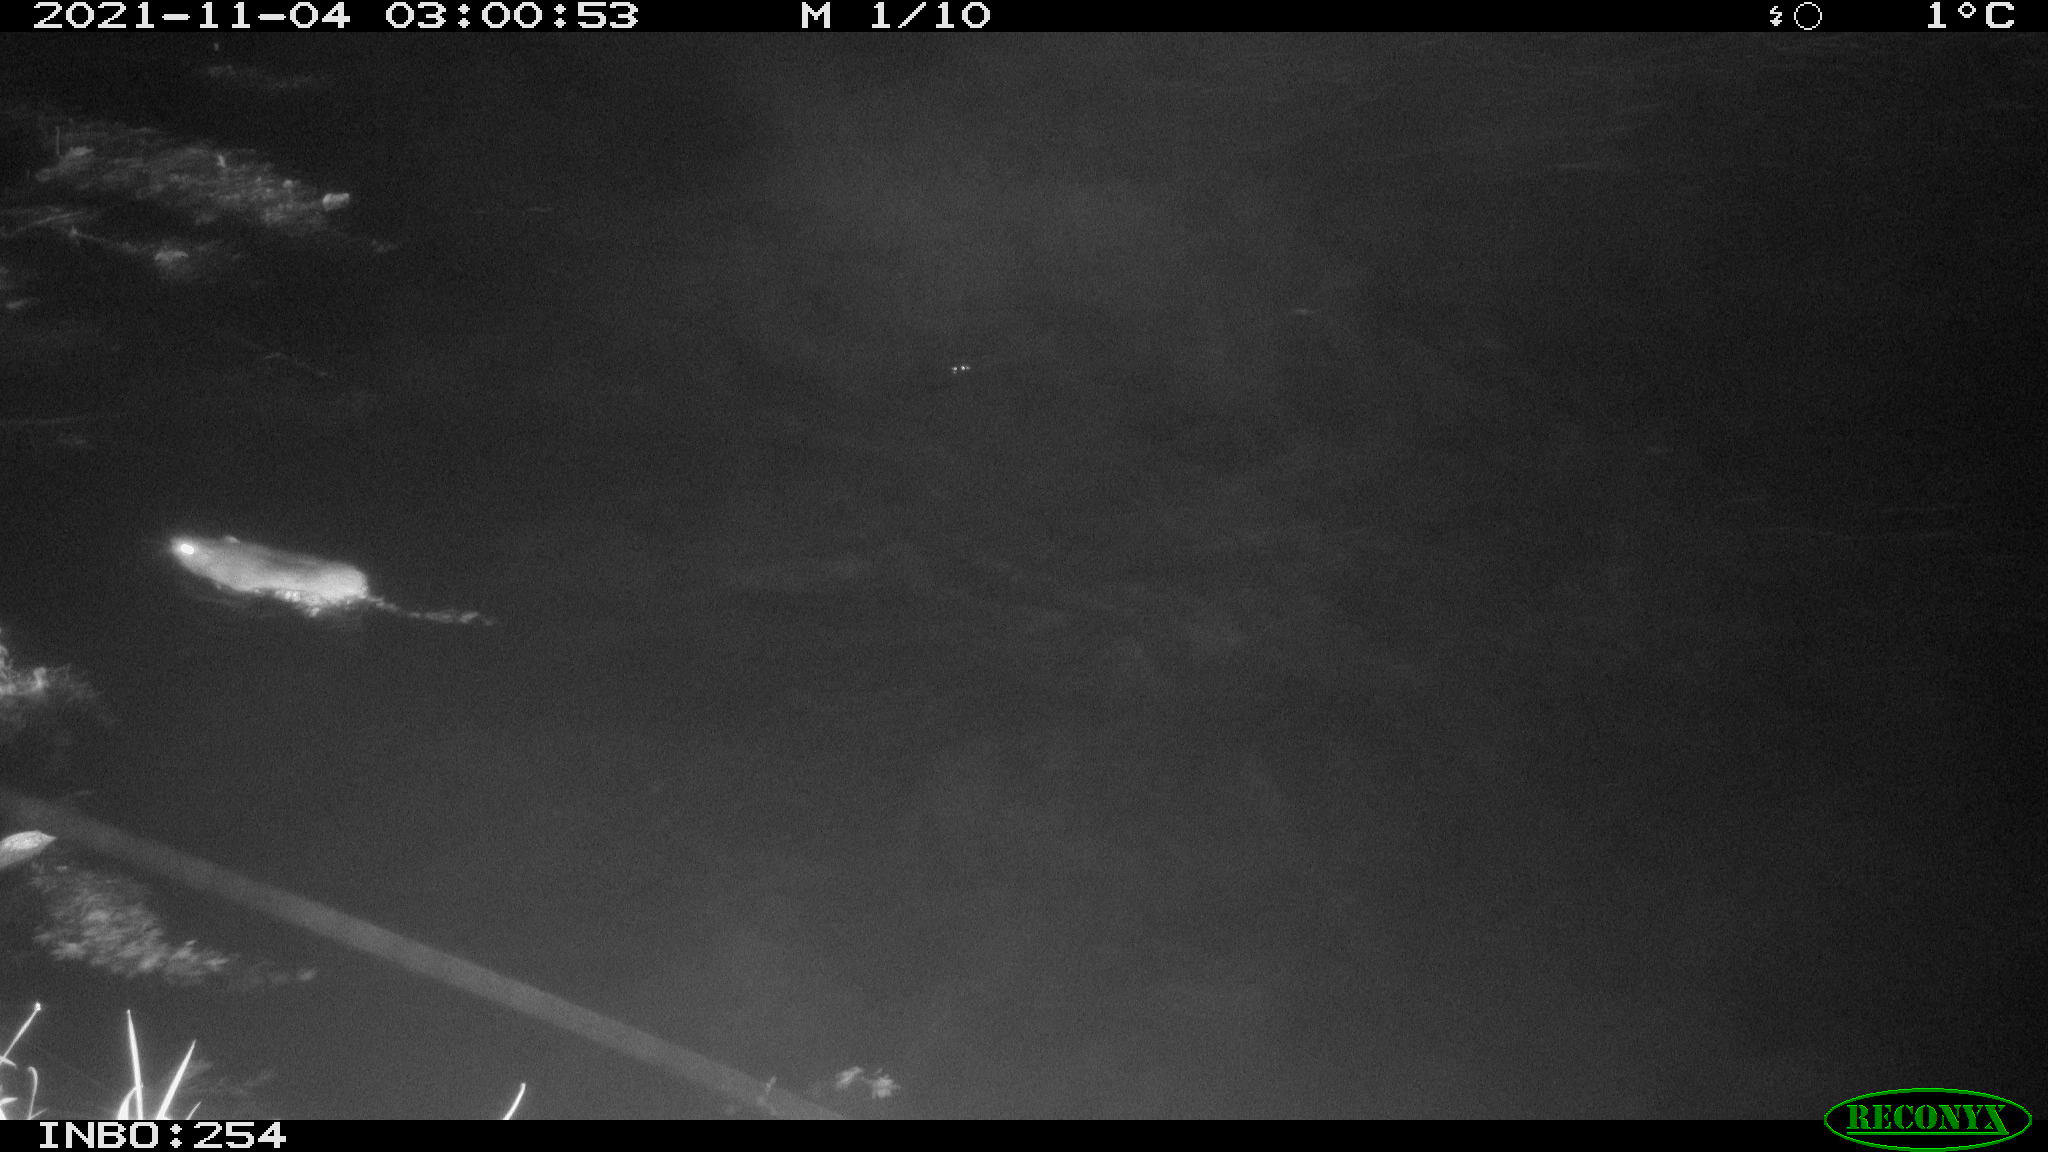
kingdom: Animalia
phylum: Chordata
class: Mammalia
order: Rodentia
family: Muridae
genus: Rattus
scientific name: Rattus norvegicus
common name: Brown rat
